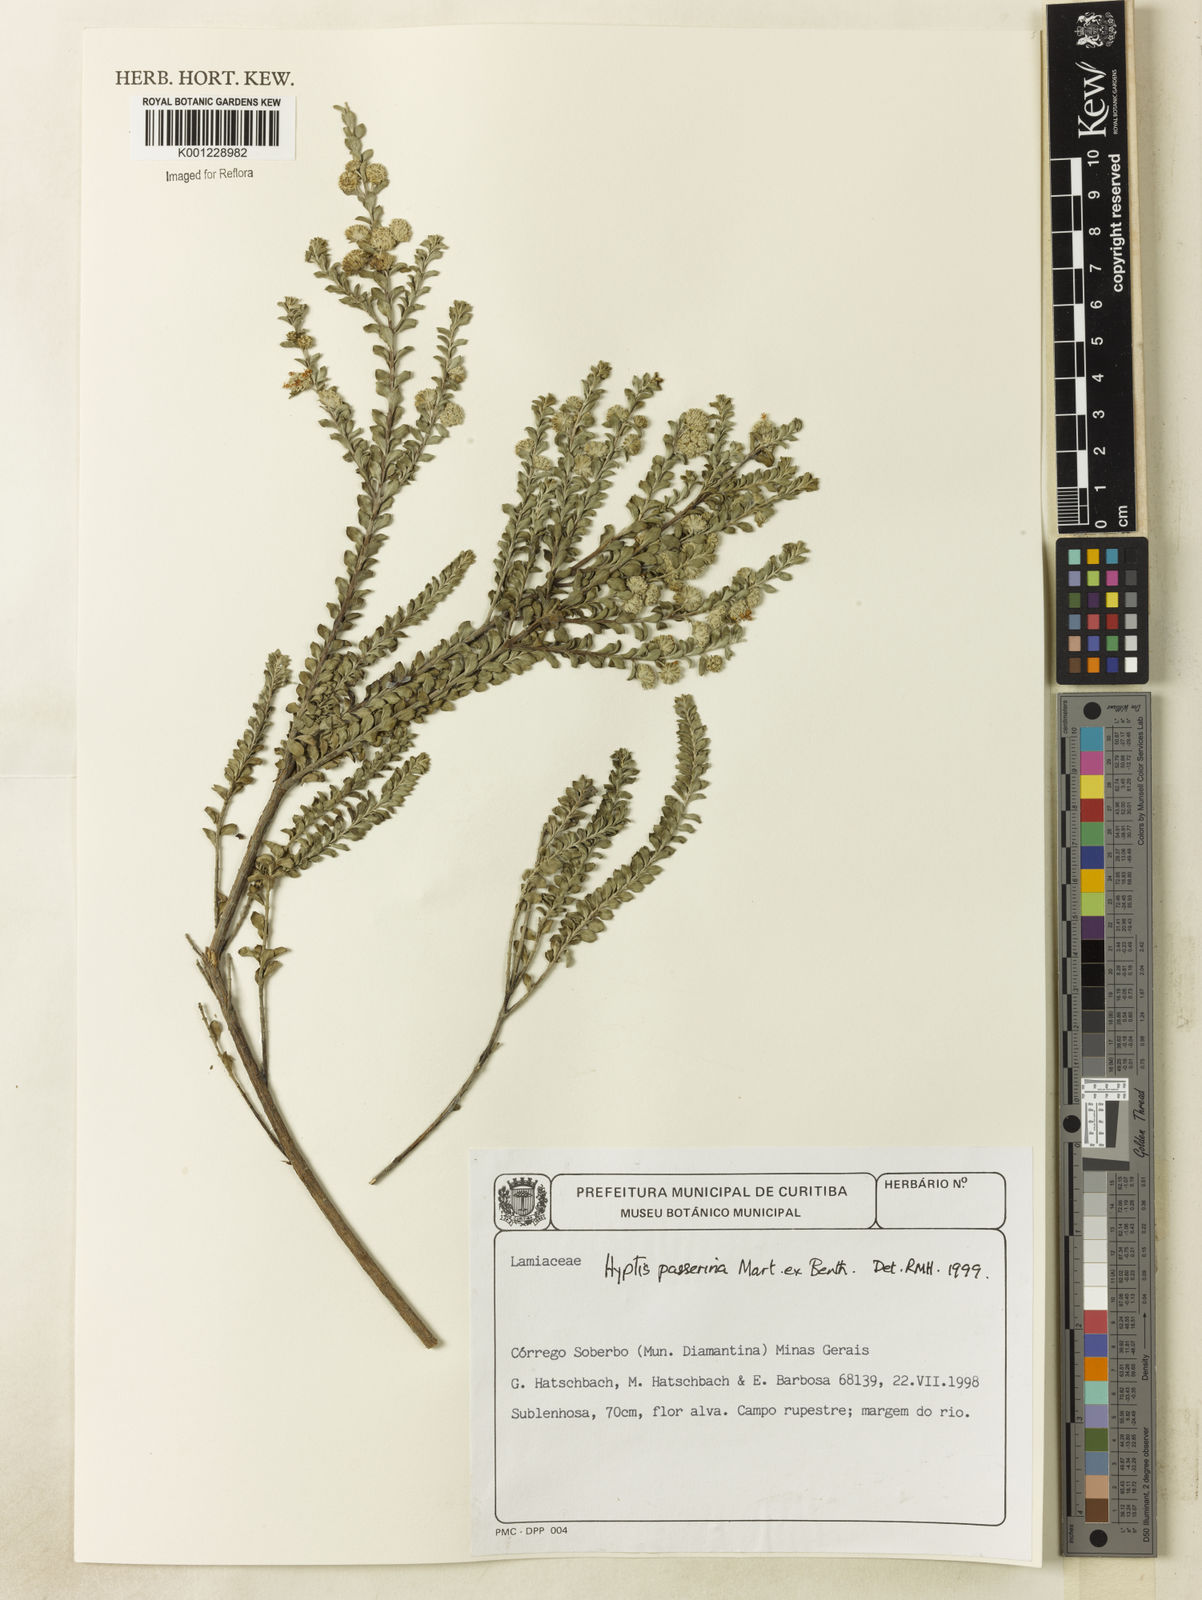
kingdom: Plantae
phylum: Tracheophyta
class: Magnoliopsida
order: Lamiales
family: Lamiaceae
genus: Hyptis
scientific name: Hyptis passerina
